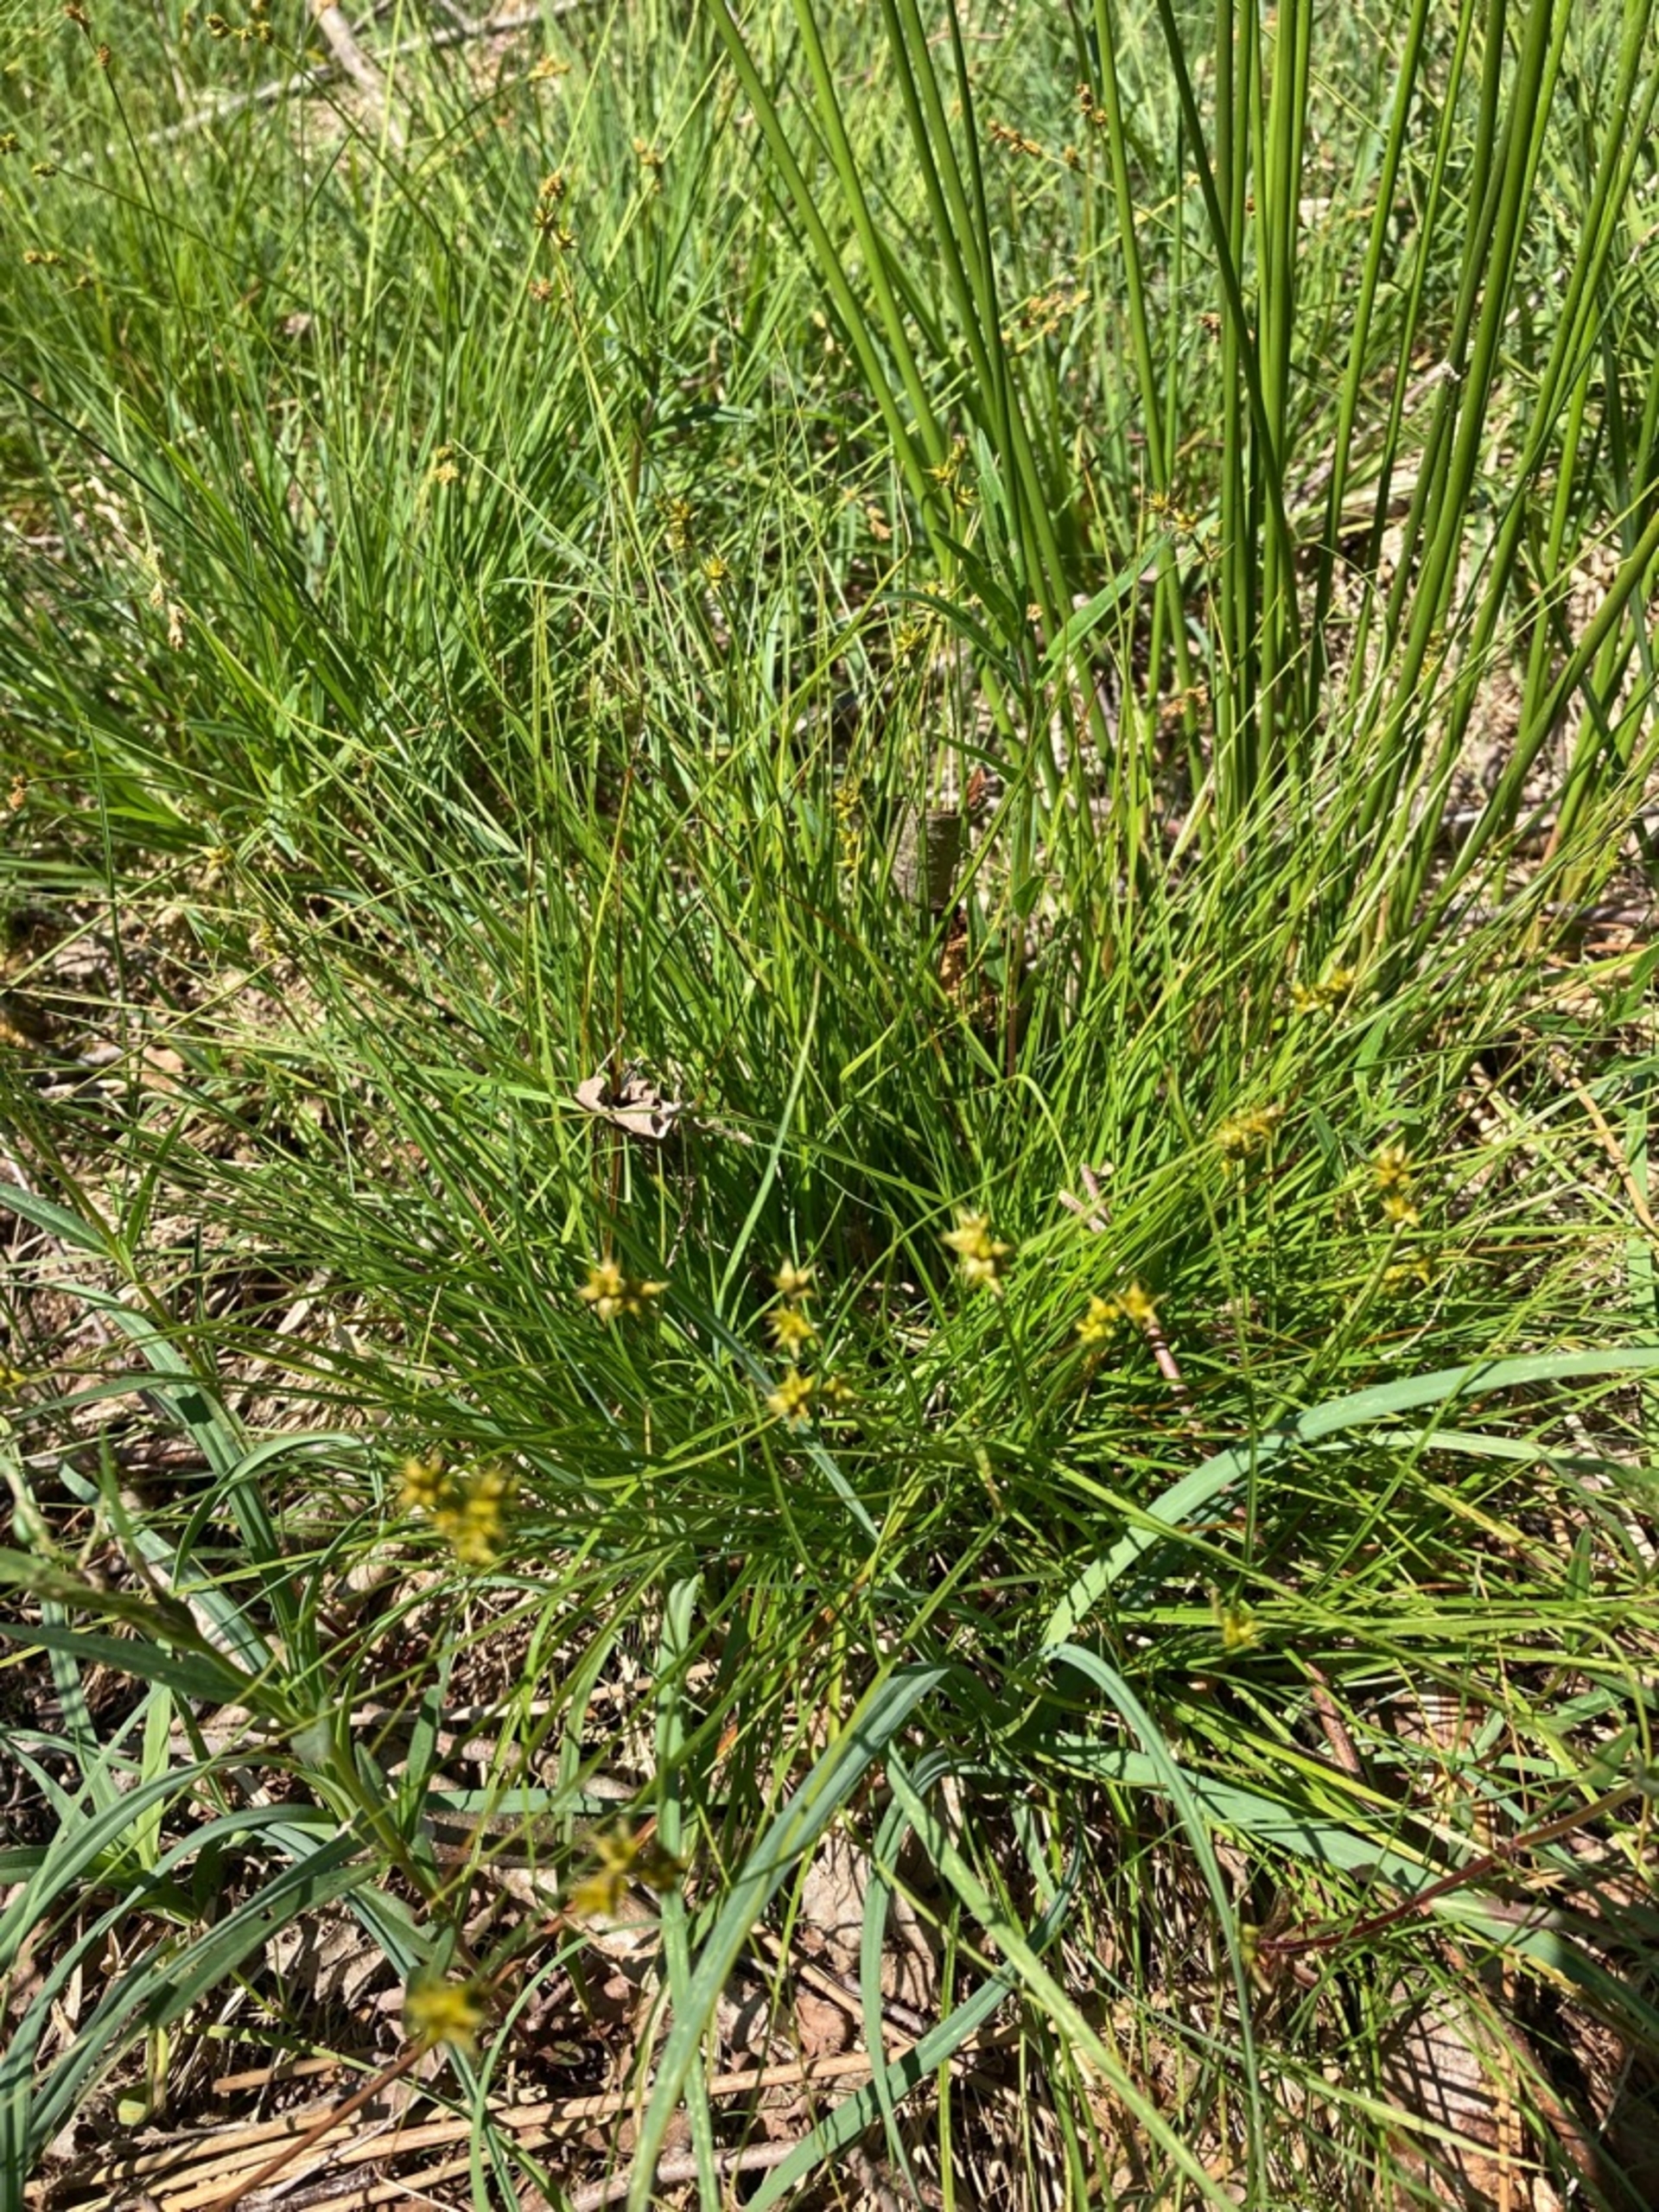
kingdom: Plantae
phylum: Tracheophyta
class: Liliopsida
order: Poales
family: Cyperaceae
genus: Carex
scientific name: Carex echinata
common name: Stjerne-star
